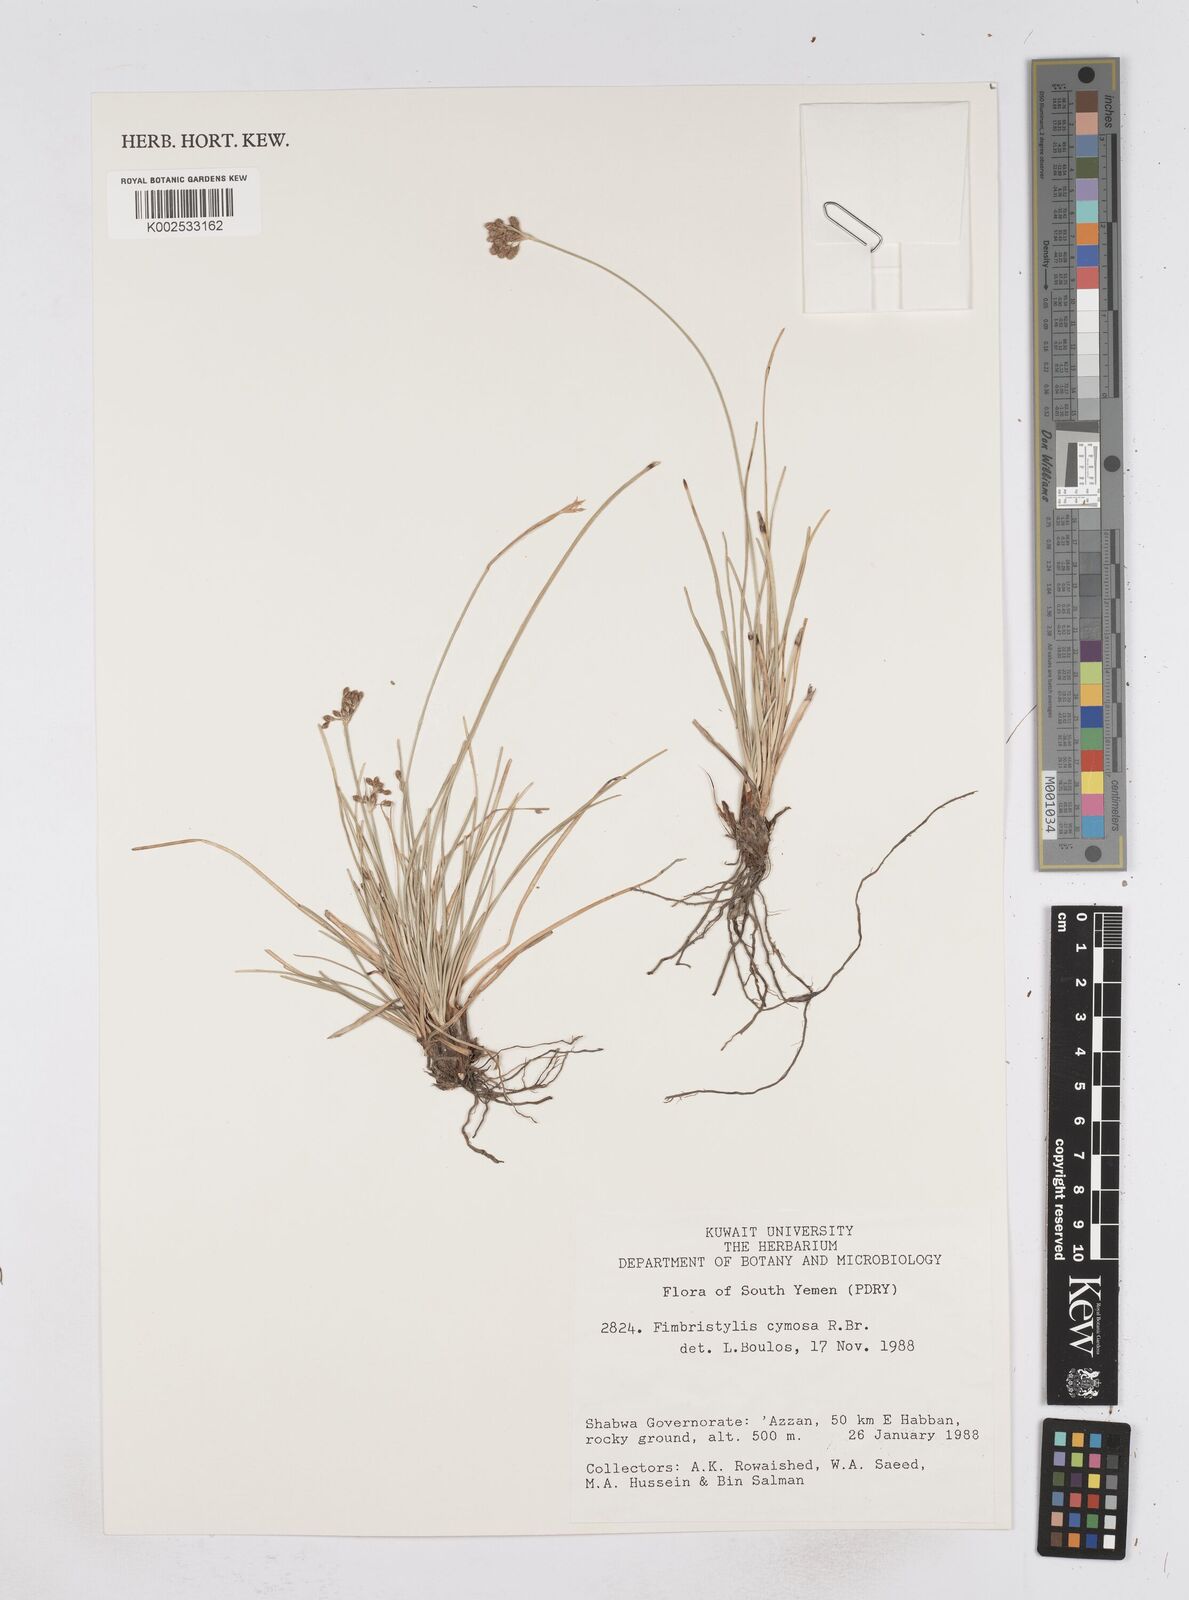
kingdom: Plantae
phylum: Tracheophyta
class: Liliopsida
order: Poales
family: Cyperaceae
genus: Fimbristylis
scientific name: Fimbristylis cymosa
